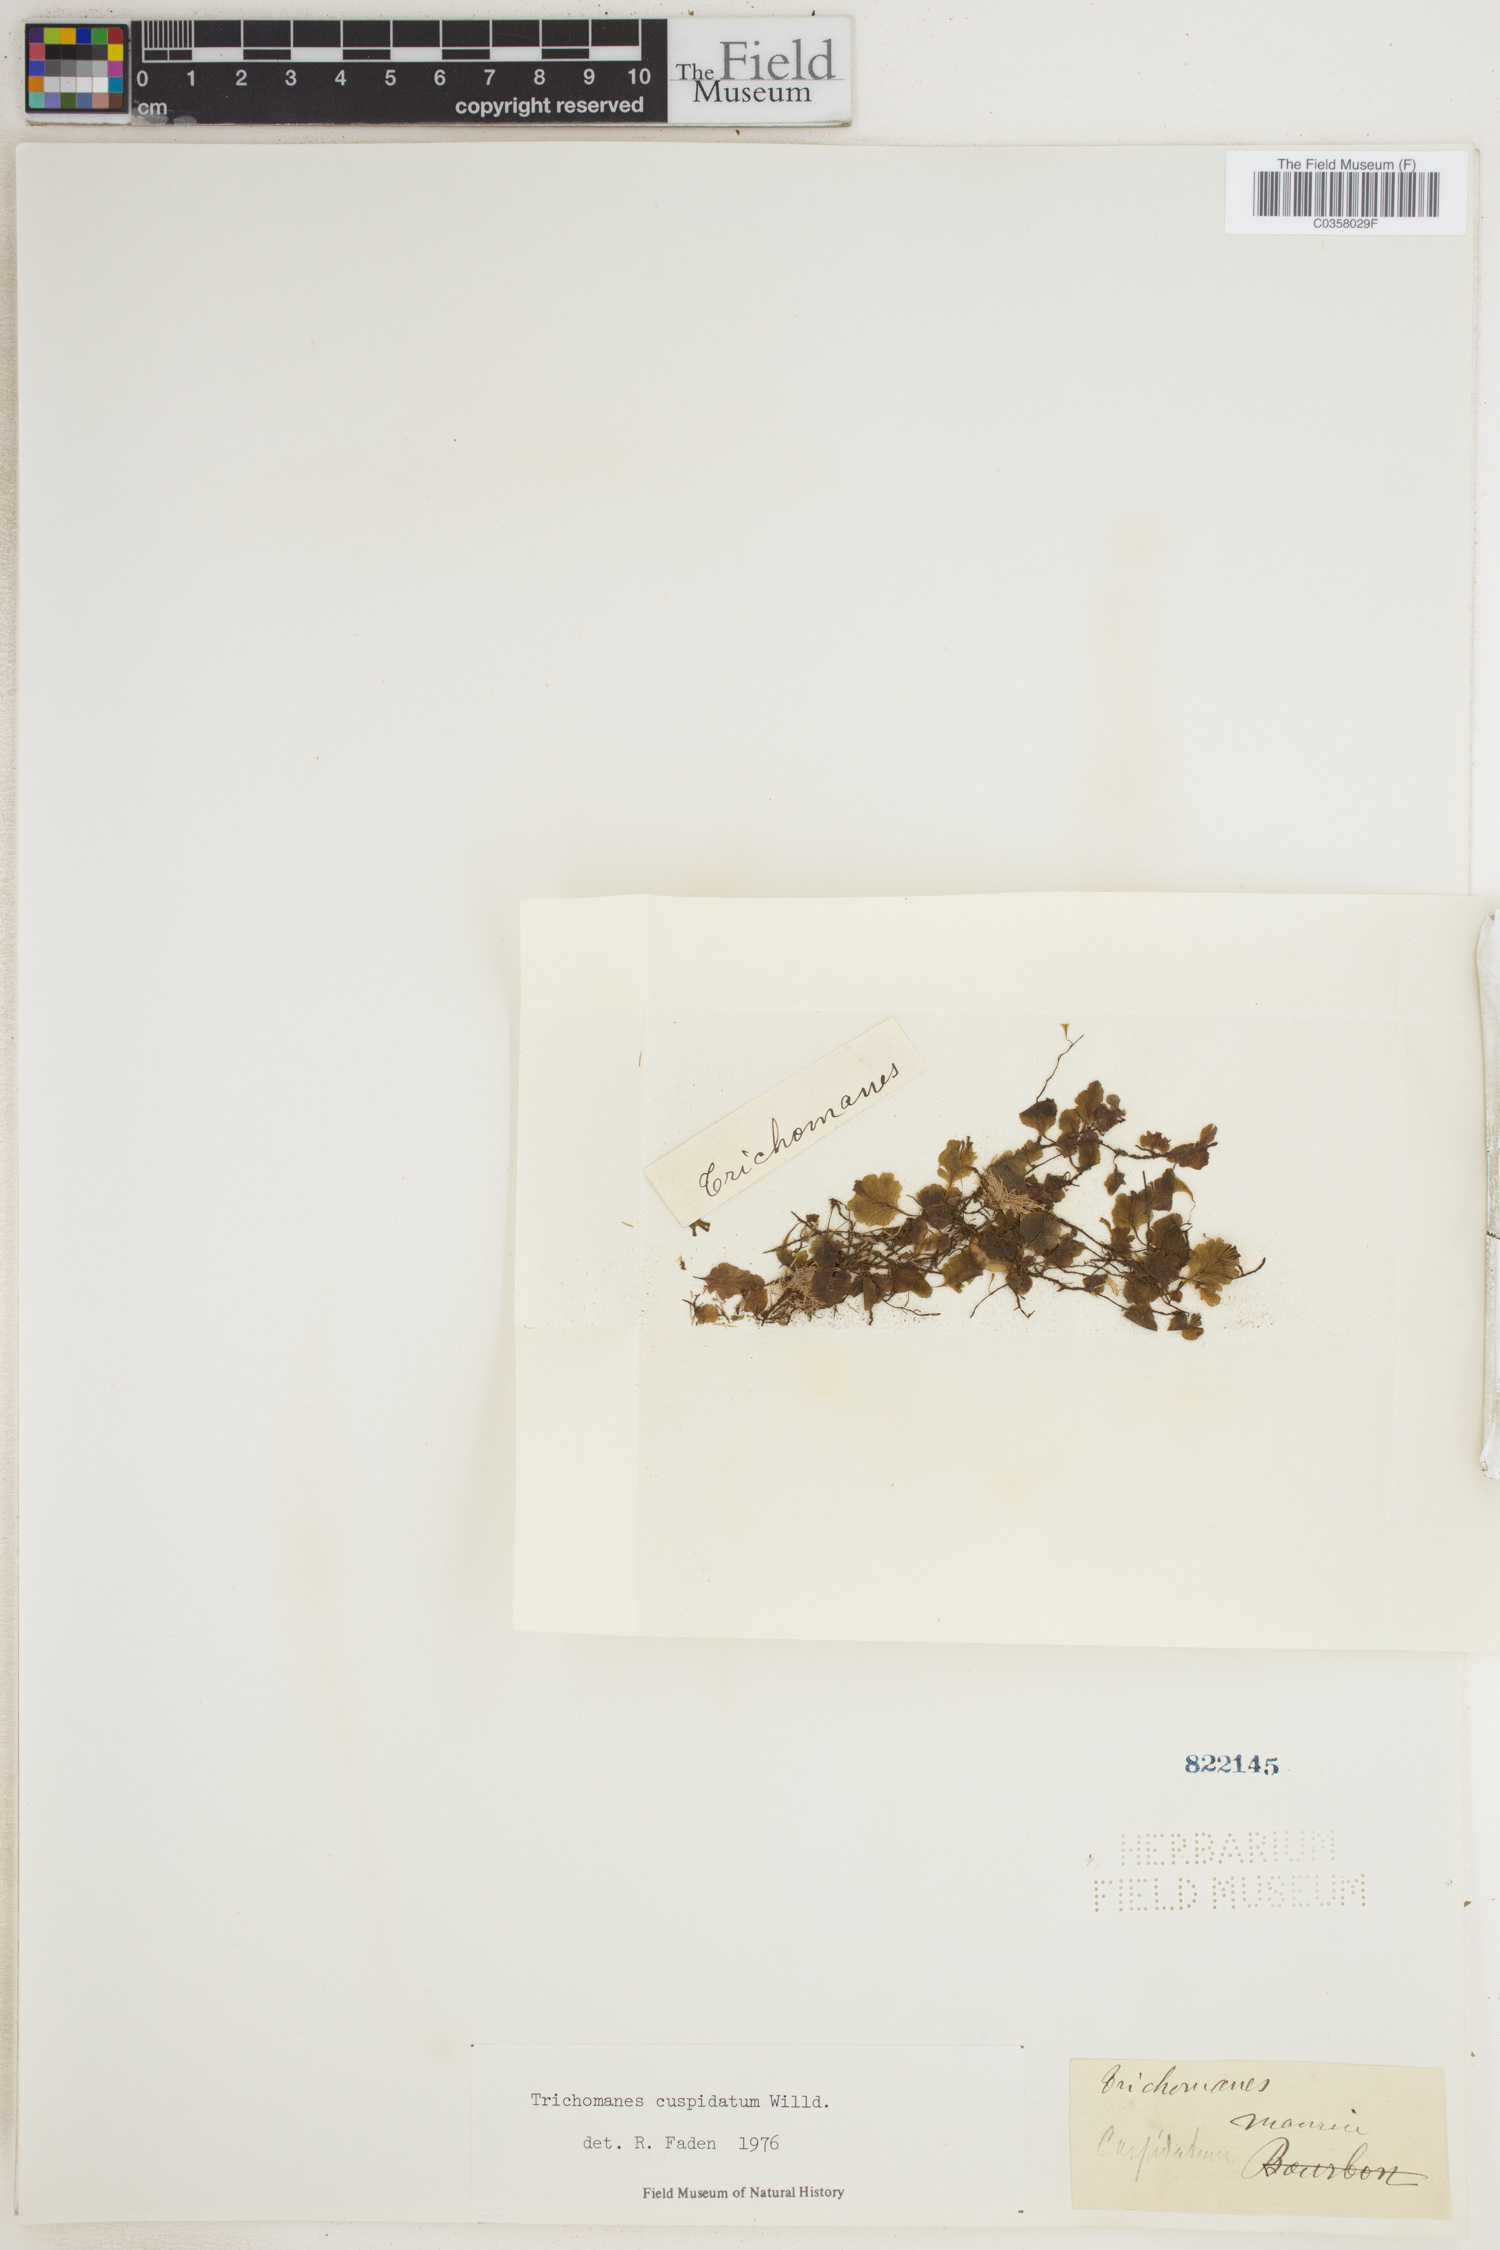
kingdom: Plantae
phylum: Tracheophyta
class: Polypodiopsida
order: Hymenophyllales
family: Hymenophyllaceae
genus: Didymoglossum
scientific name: Didymoglossum cuspidatum
